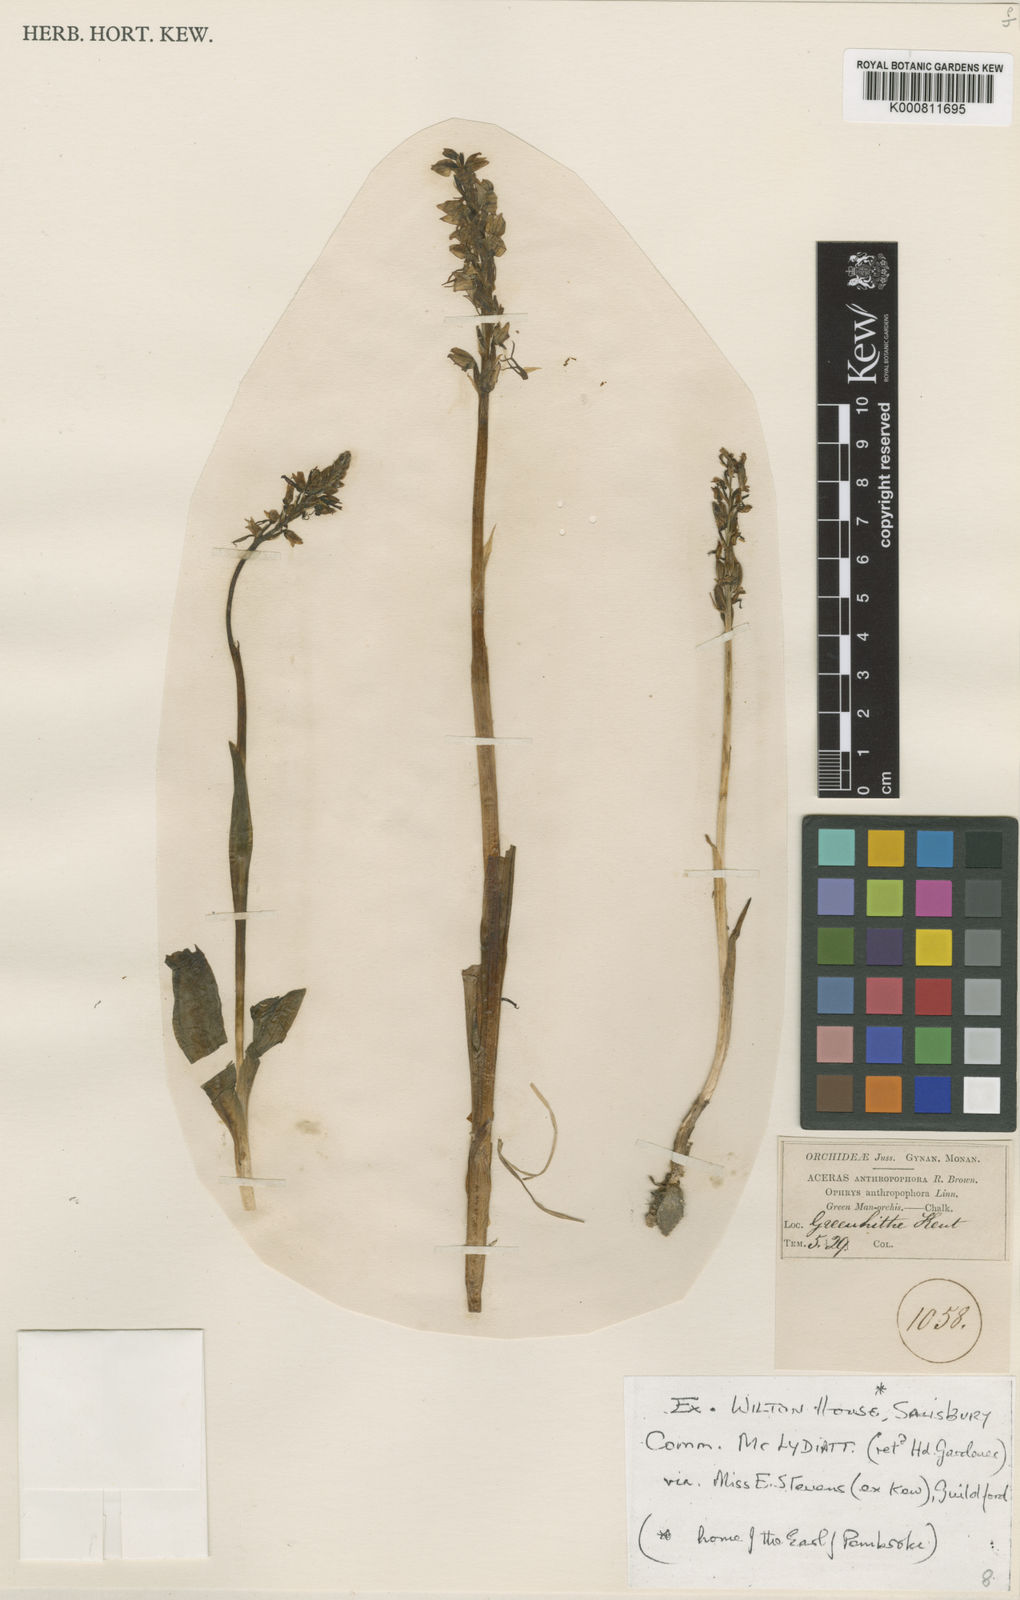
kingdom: Plantae
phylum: Tracheophyta
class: Liliopsida
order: Asparagales
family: Orchidaceae
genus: Orchis
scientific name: Orchis
